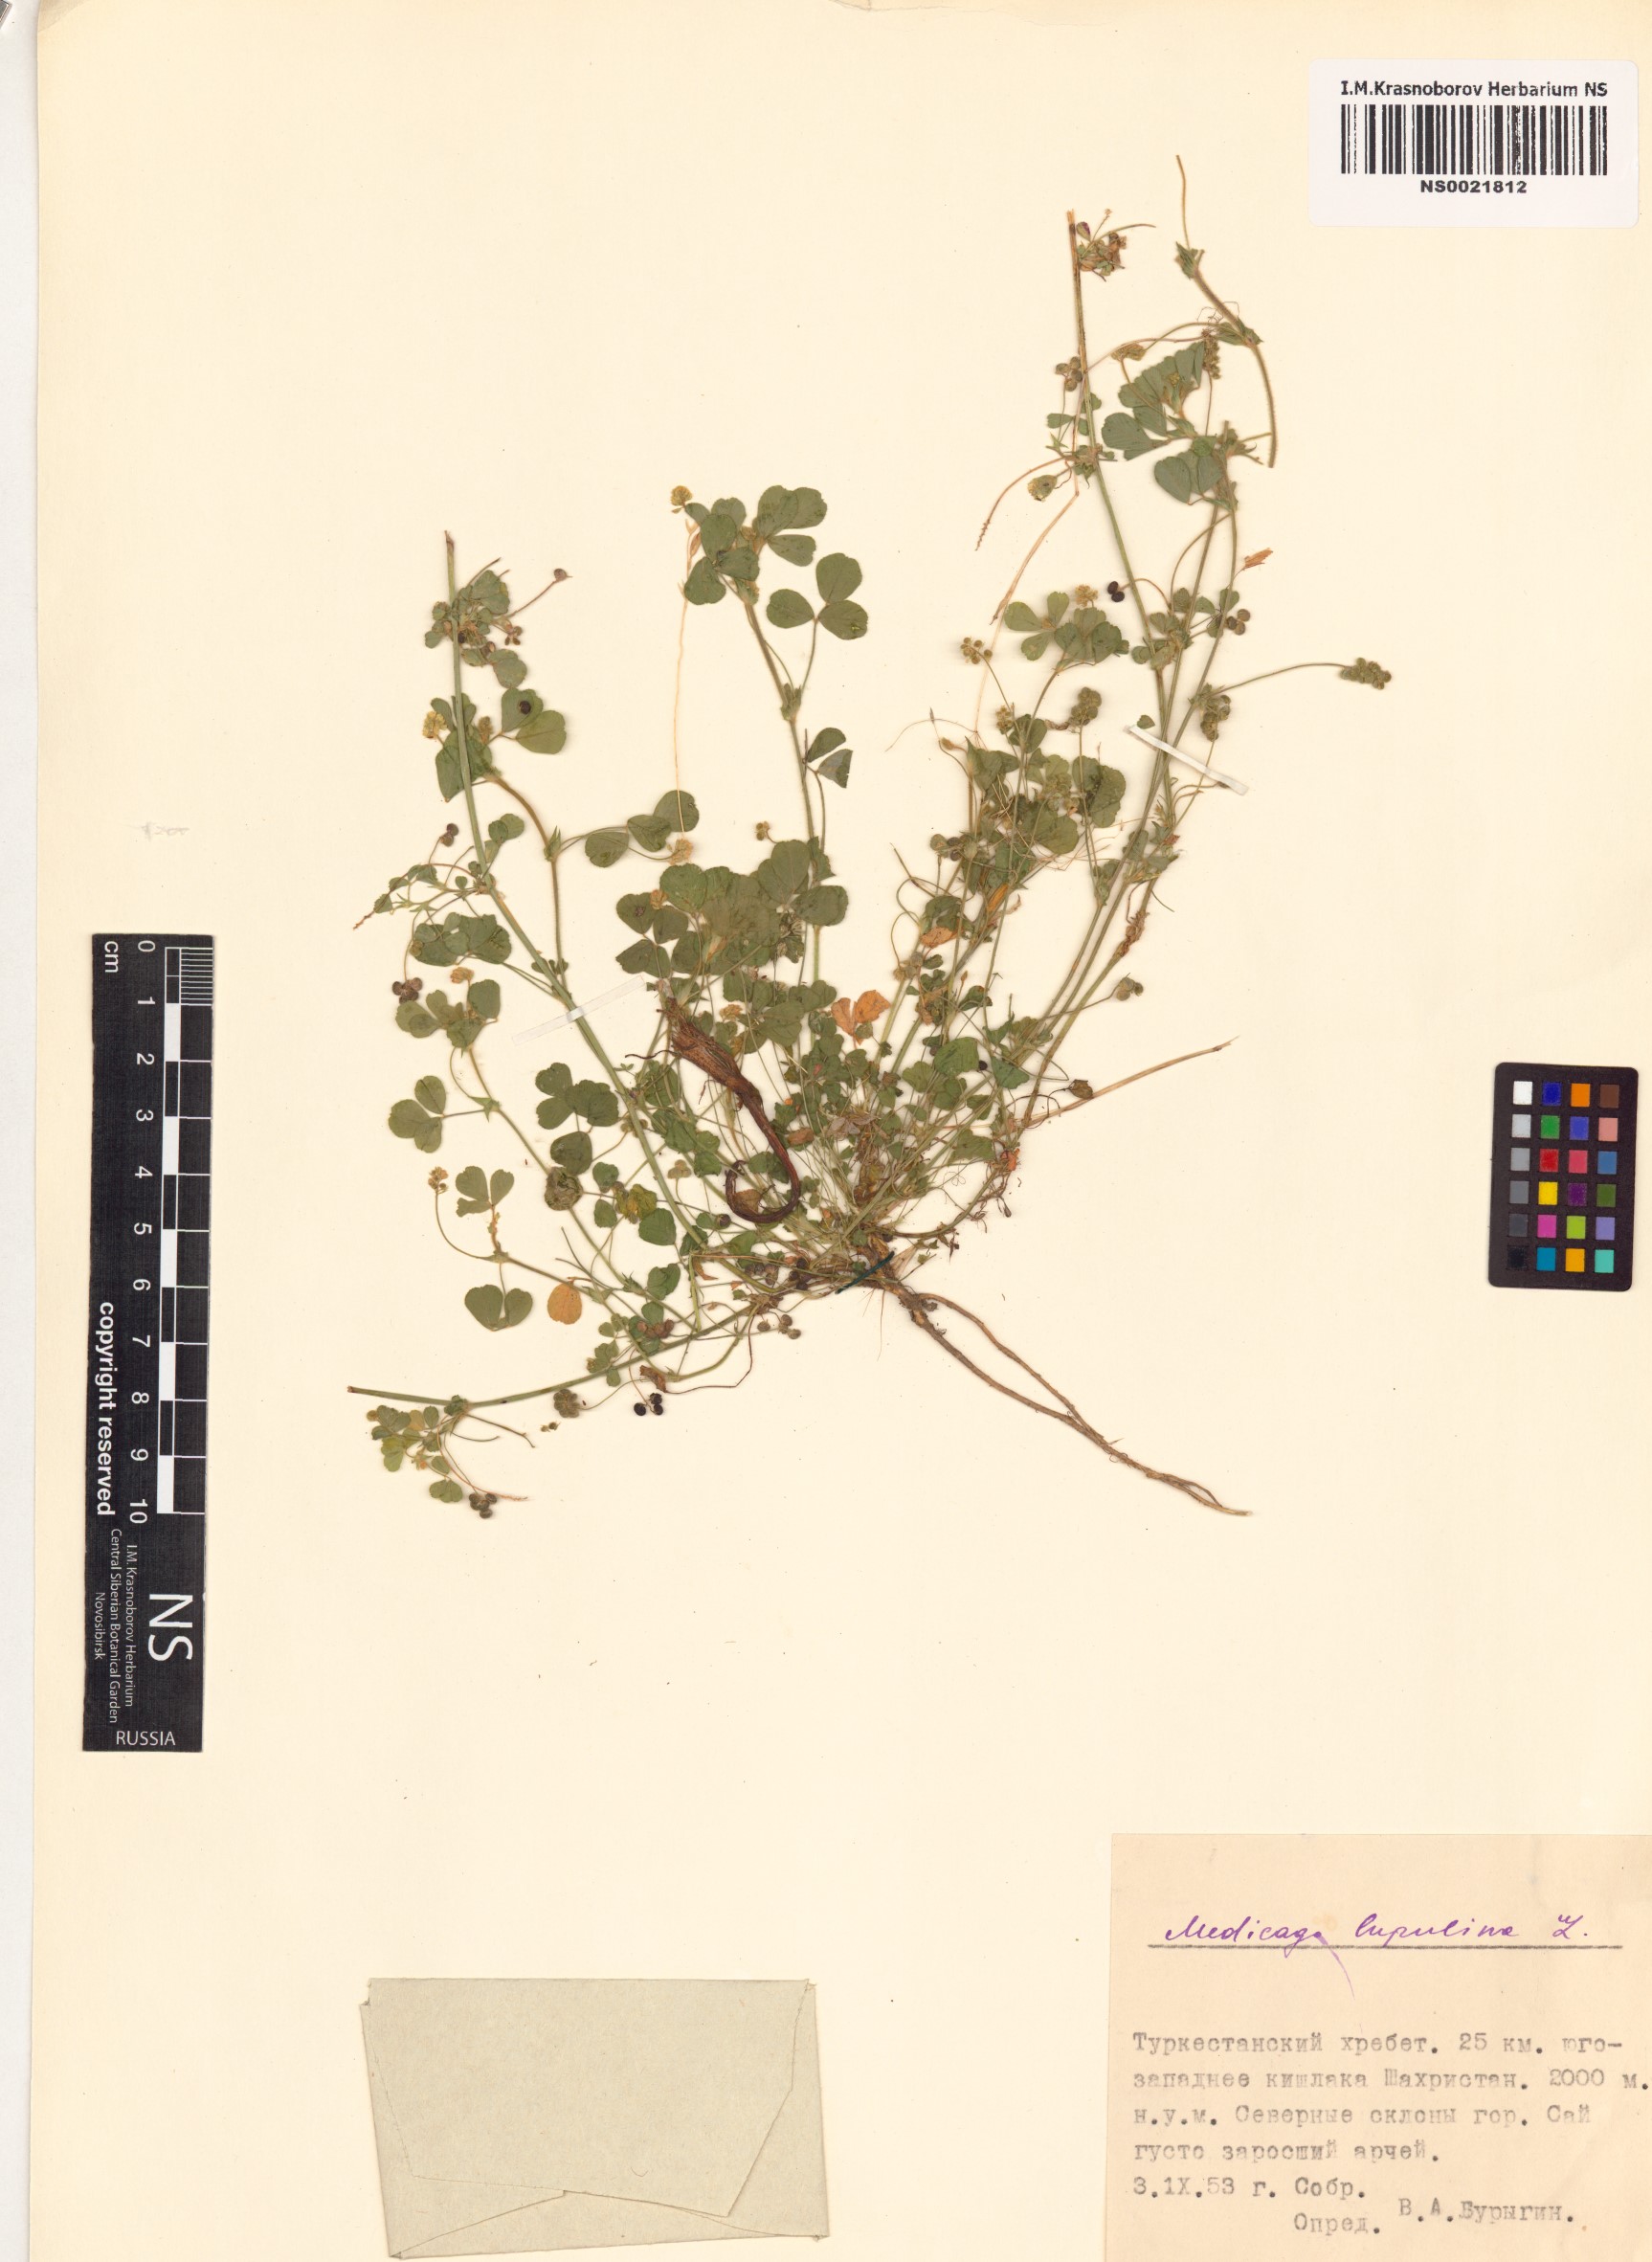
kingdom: Plantae
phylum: Tracheophyta
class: Magnoliopsida
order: Fabales
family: Fabaceae
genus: Medicago
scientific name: Medicago lupulina
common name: Black medick
